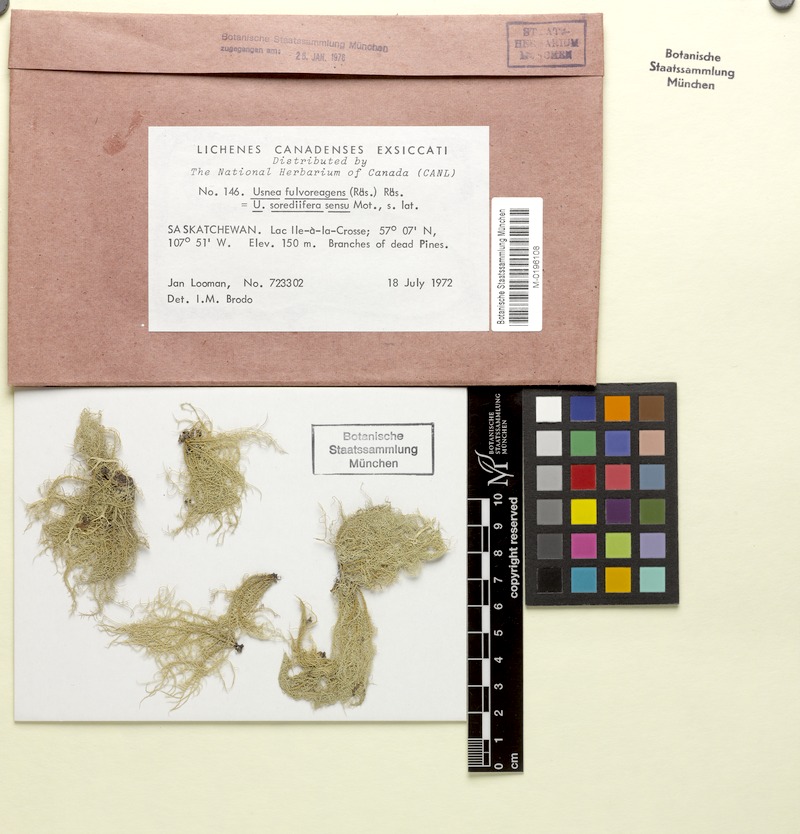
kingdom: Fungi
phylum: Ascomycota
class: Lecanoromycetes
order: Lecanorales
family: Parmeliaceae
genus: Usnea
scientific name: Usnea fulvoreagens
